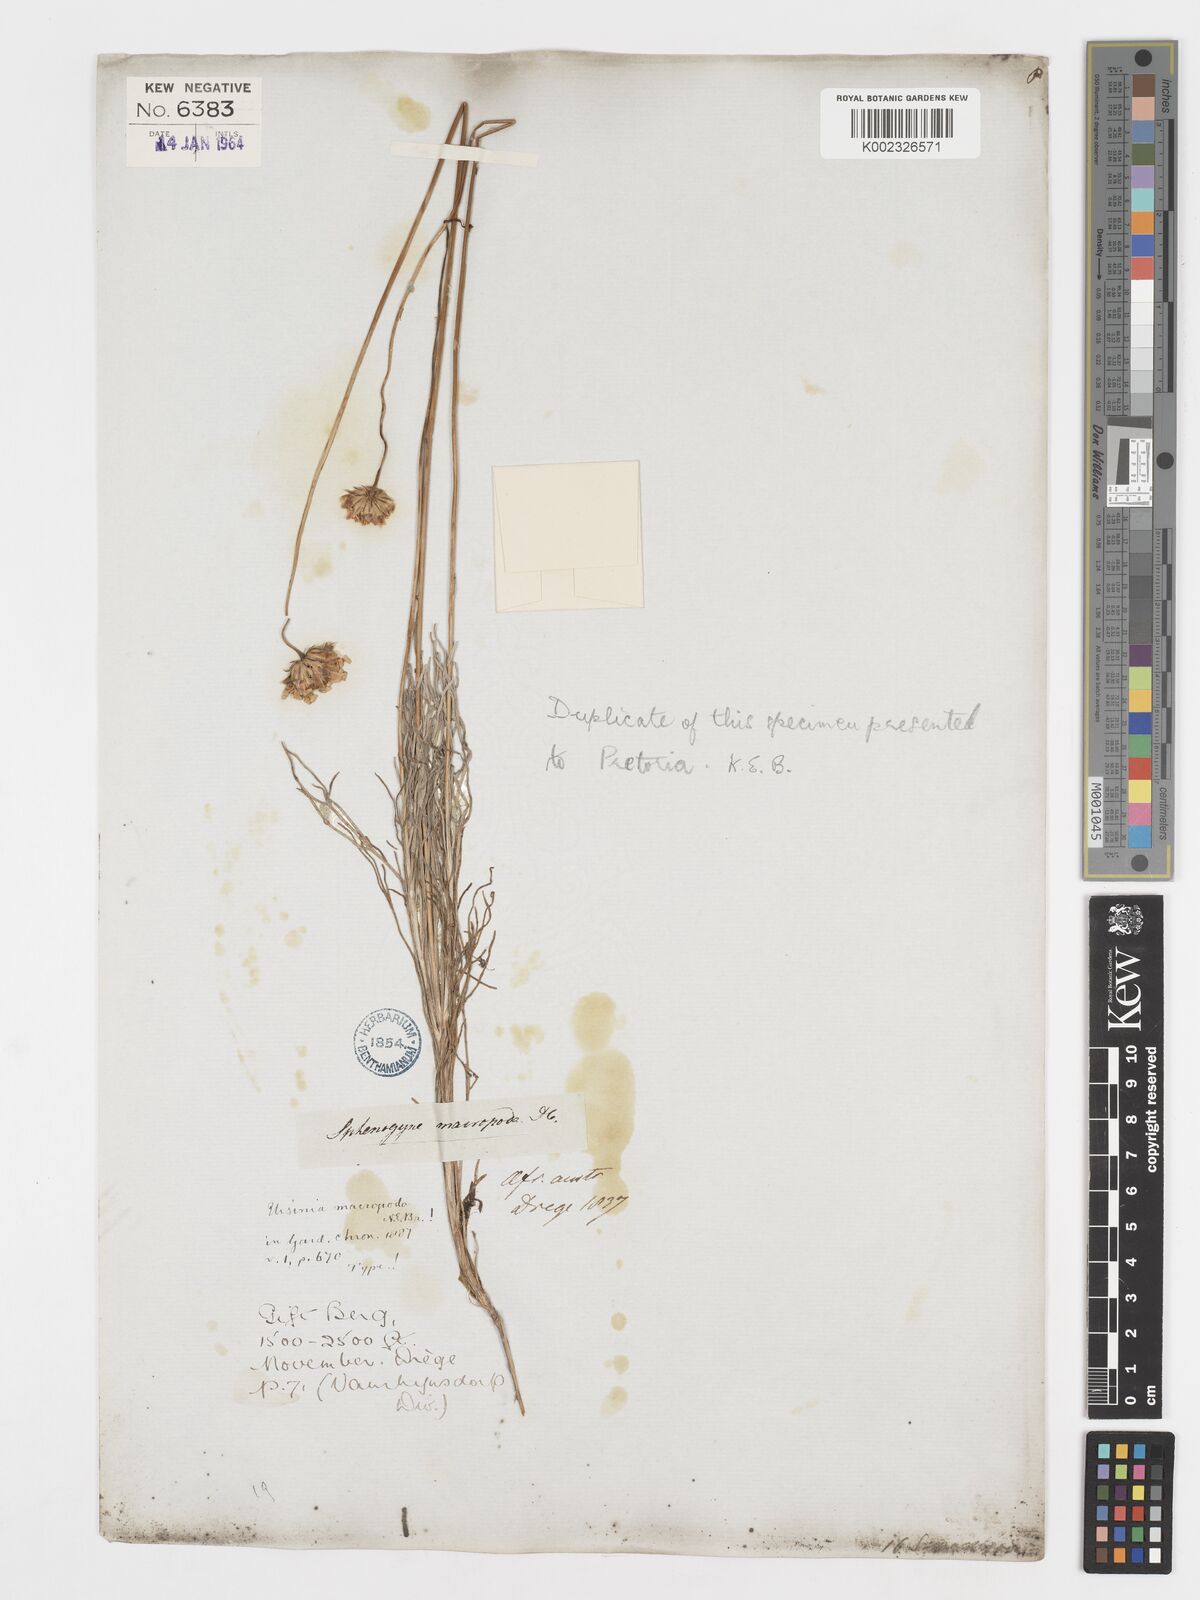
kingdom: Plantae
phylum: Tracheophyta
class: Magnoliopsida
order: Asterales
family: Asteraceae
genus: Ursinia
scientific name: Ursinia macropoda
